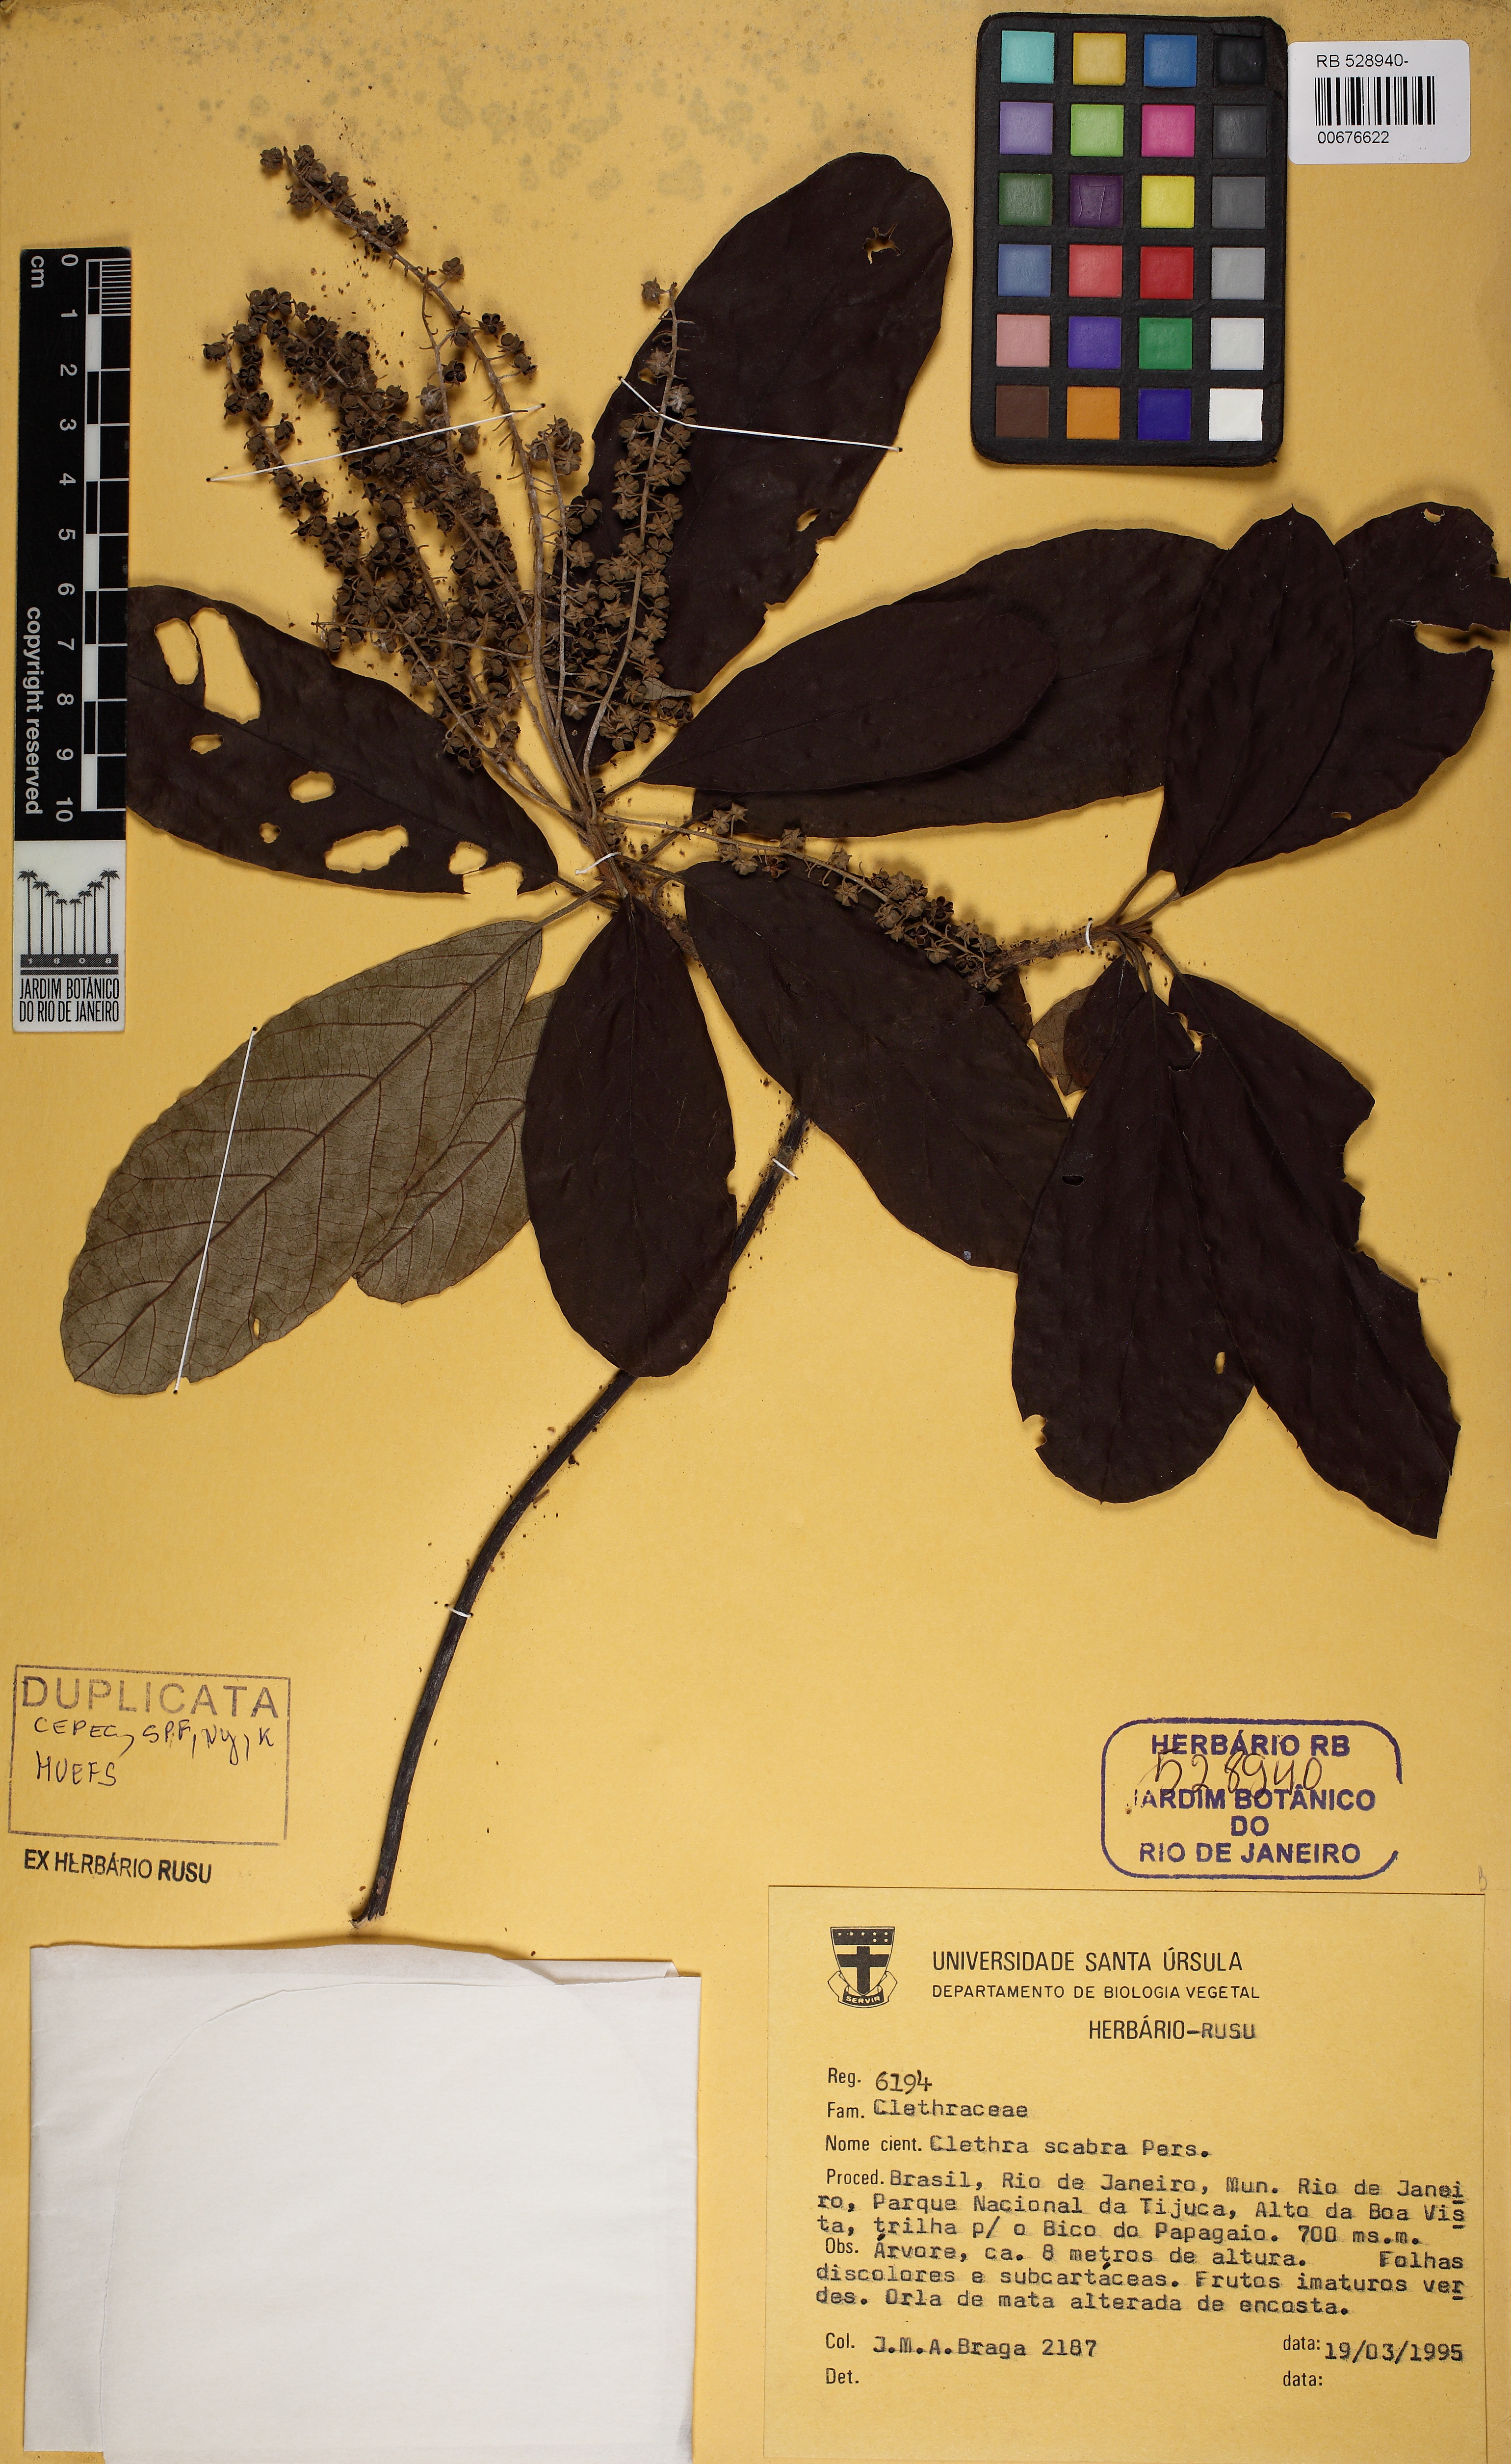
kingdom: Plantae
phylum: Tracheophyta
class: Magnoliopsida
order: Ericales
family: Clethraceae
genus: Clethra
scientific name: Clethra scabra
